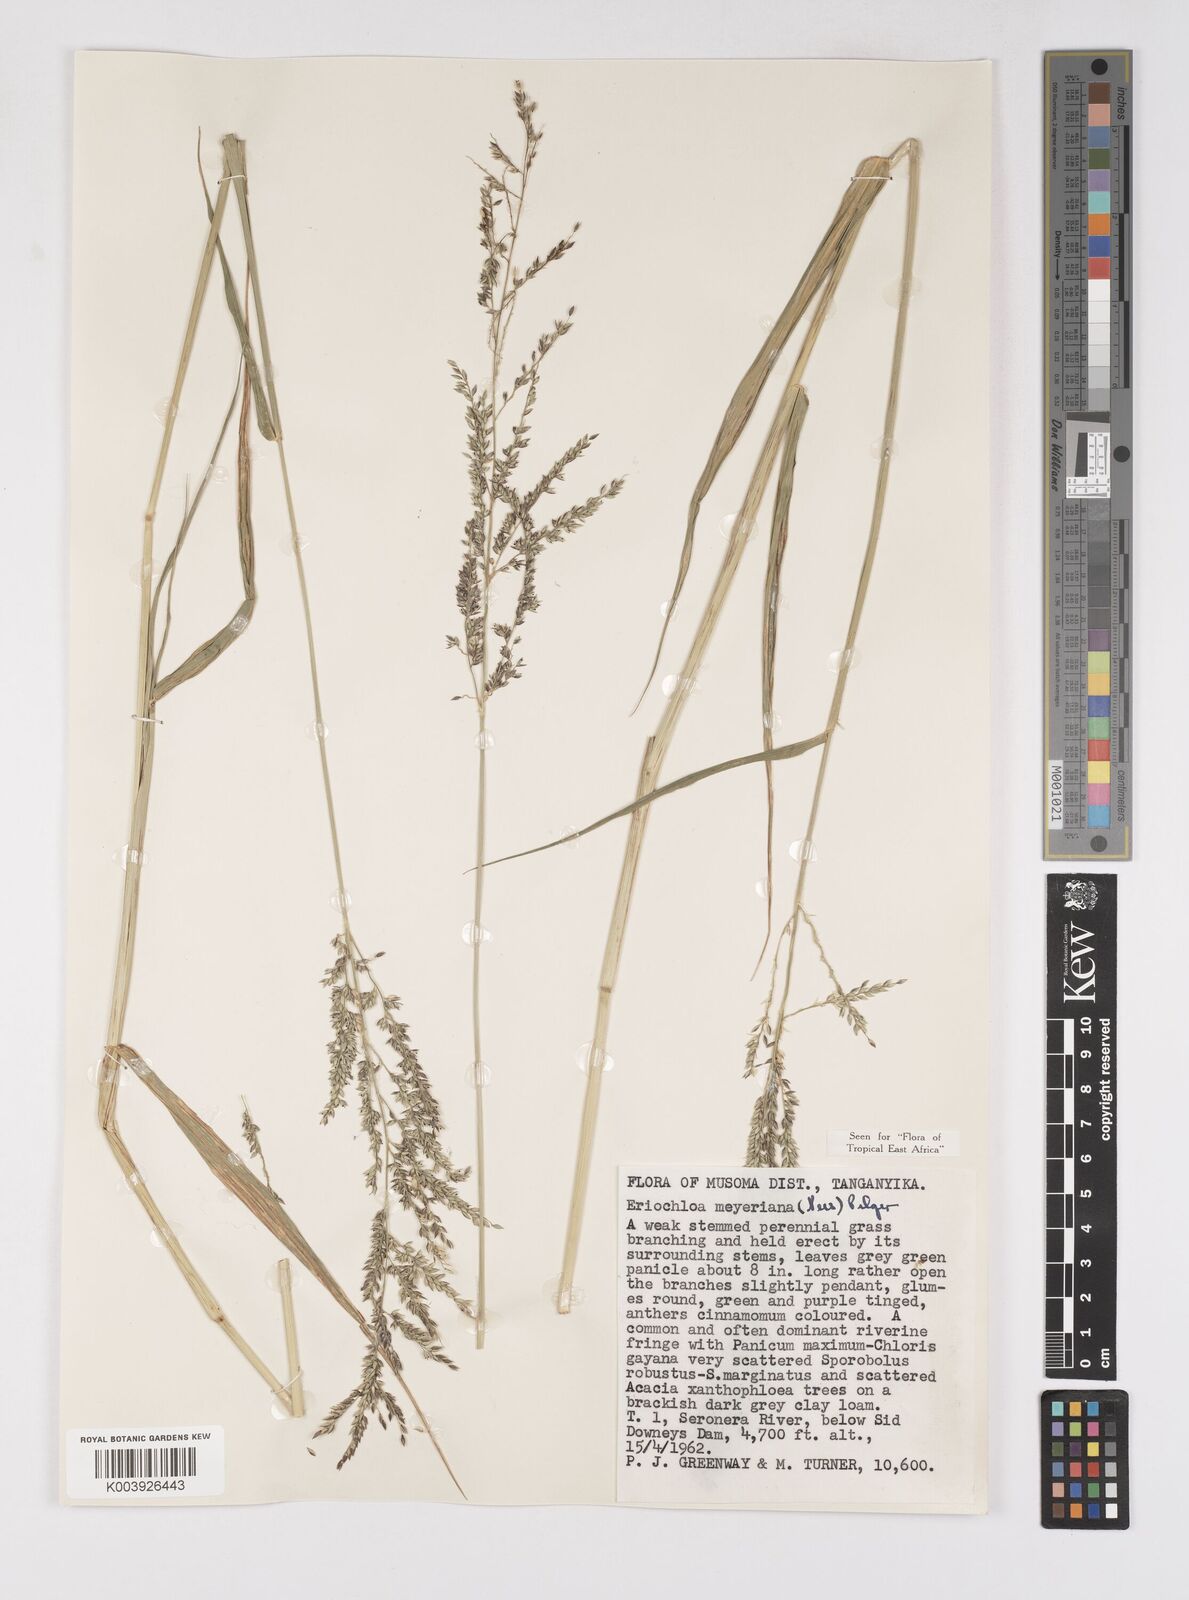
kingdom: Plantae
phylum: Tracheophyta
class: Liliopsida
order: Poales
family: Poaceae
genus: Eriochloa
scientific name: Eriochloa meyeriana
